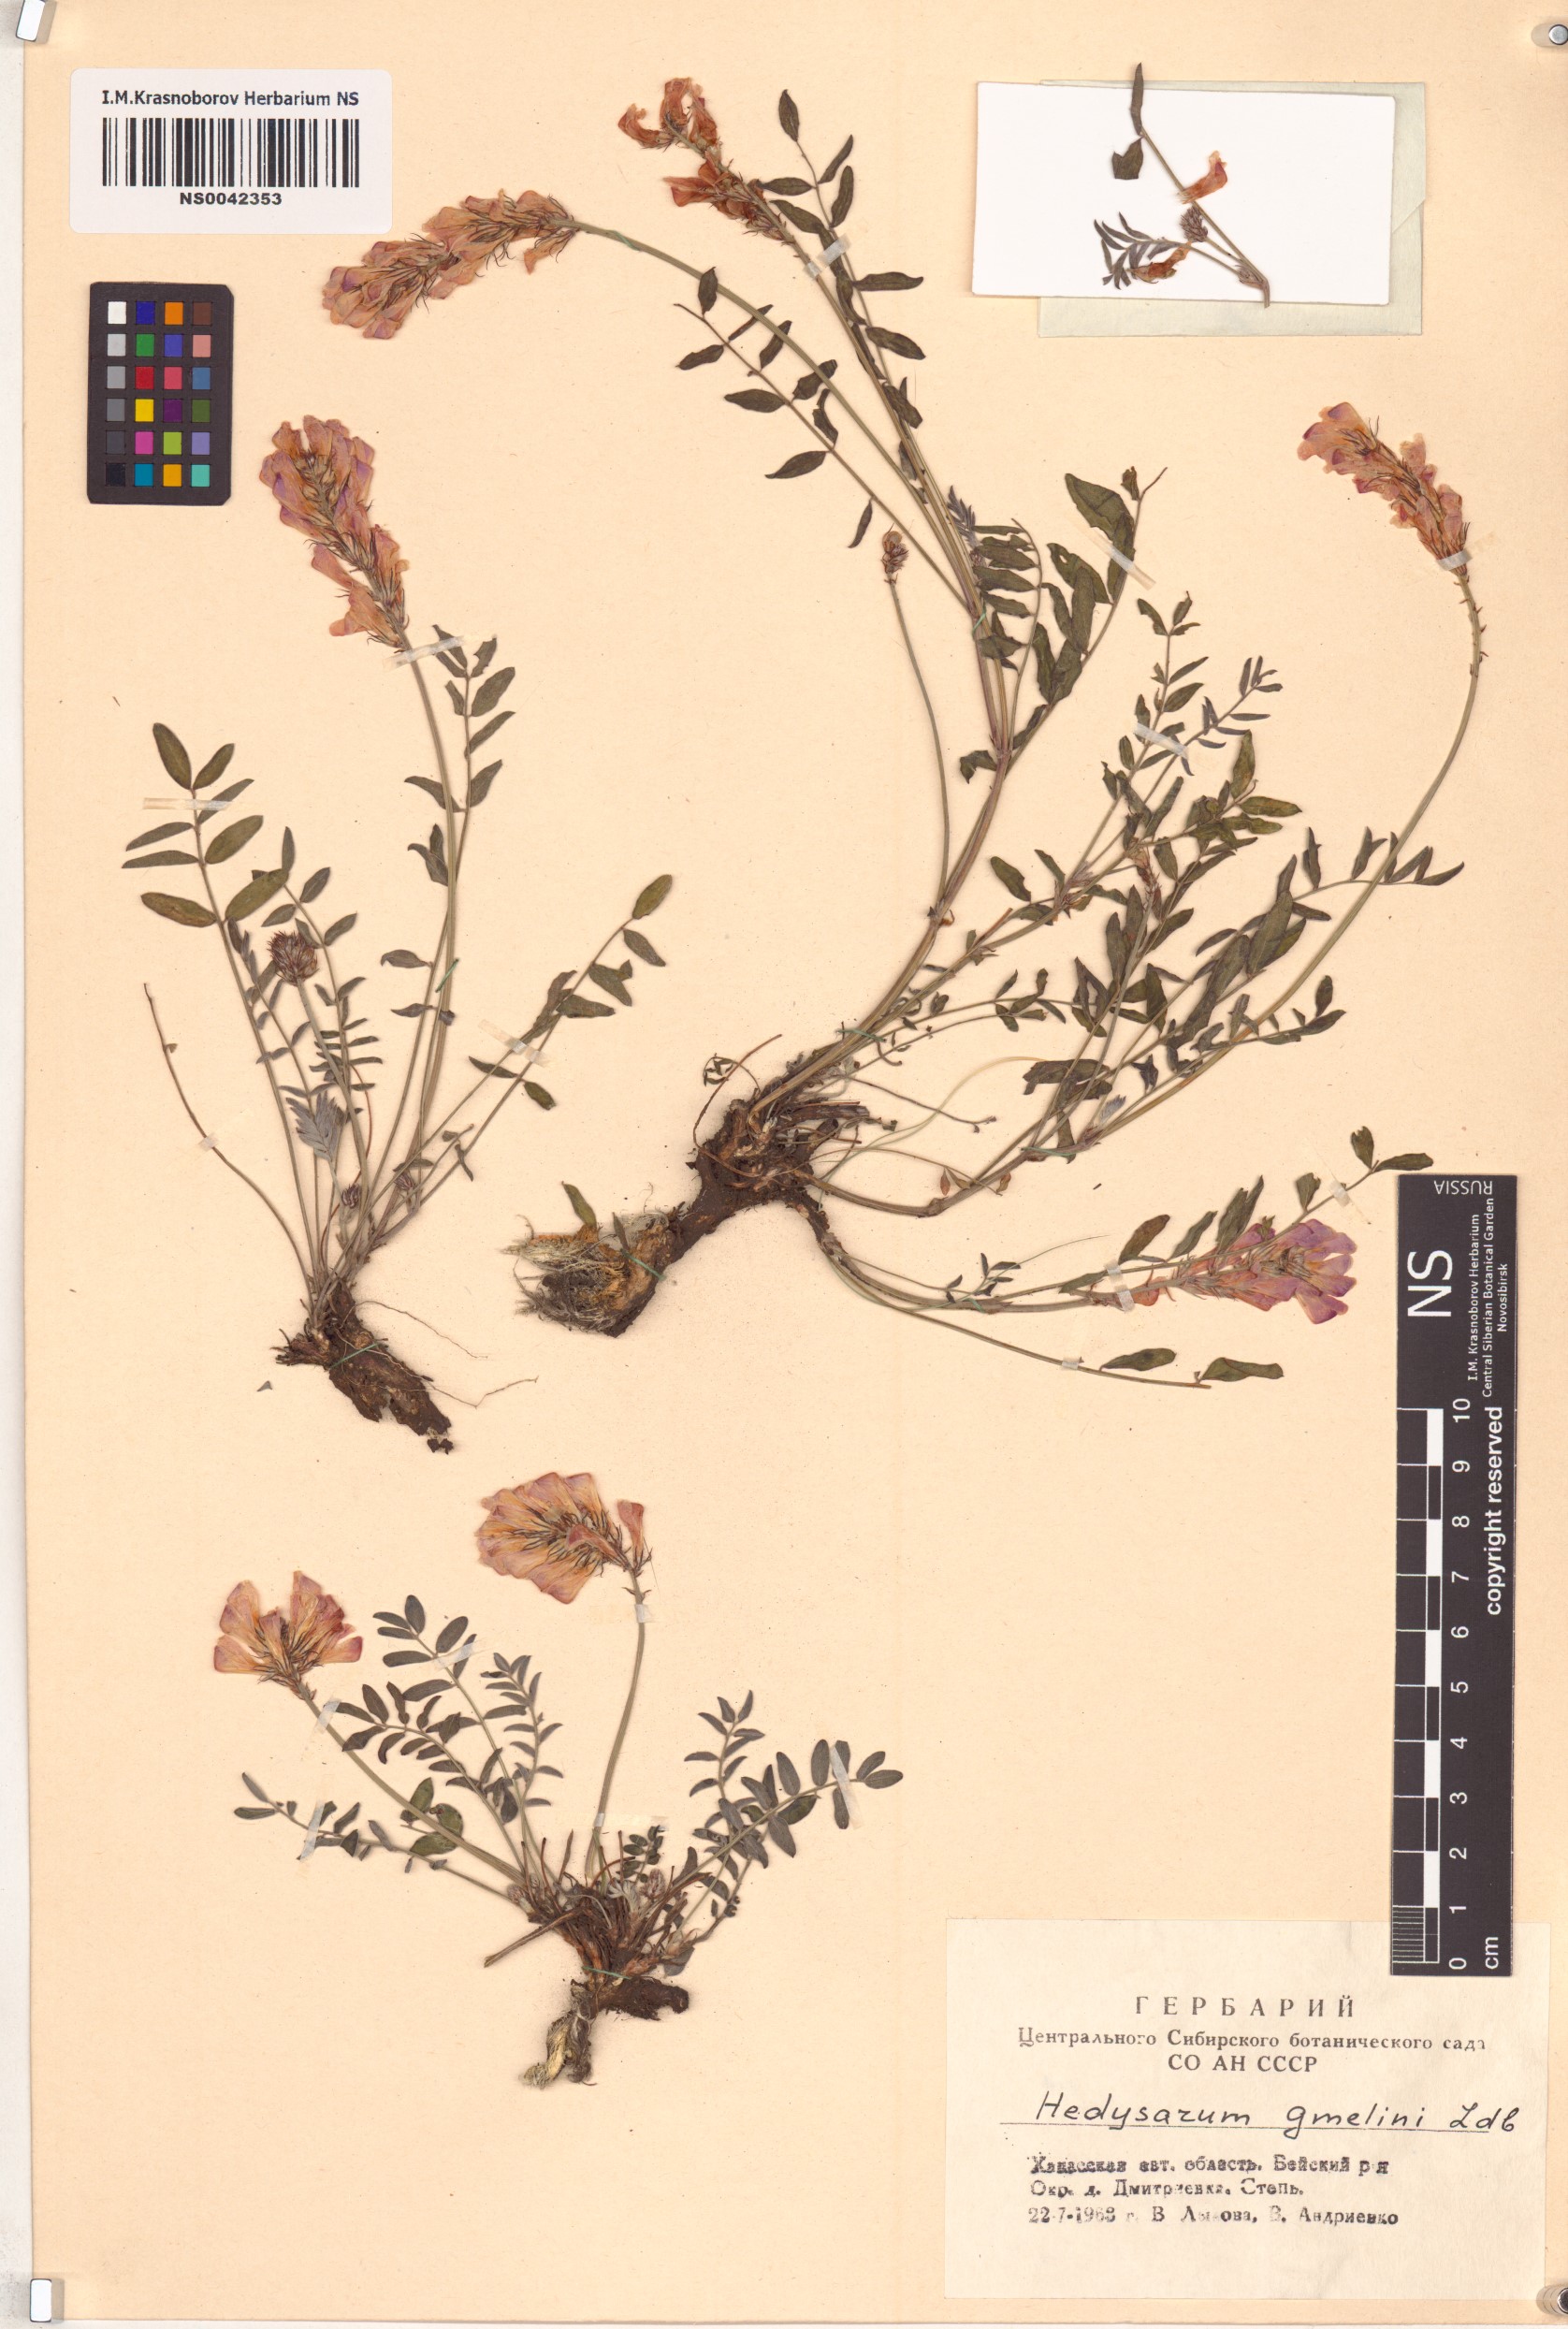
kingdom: Plantae
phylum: Tracheophyta
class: Magnoliopsida
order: Fabales
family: Fabaceae
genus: Hedysarum
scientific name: Hedysarum gmelinii
